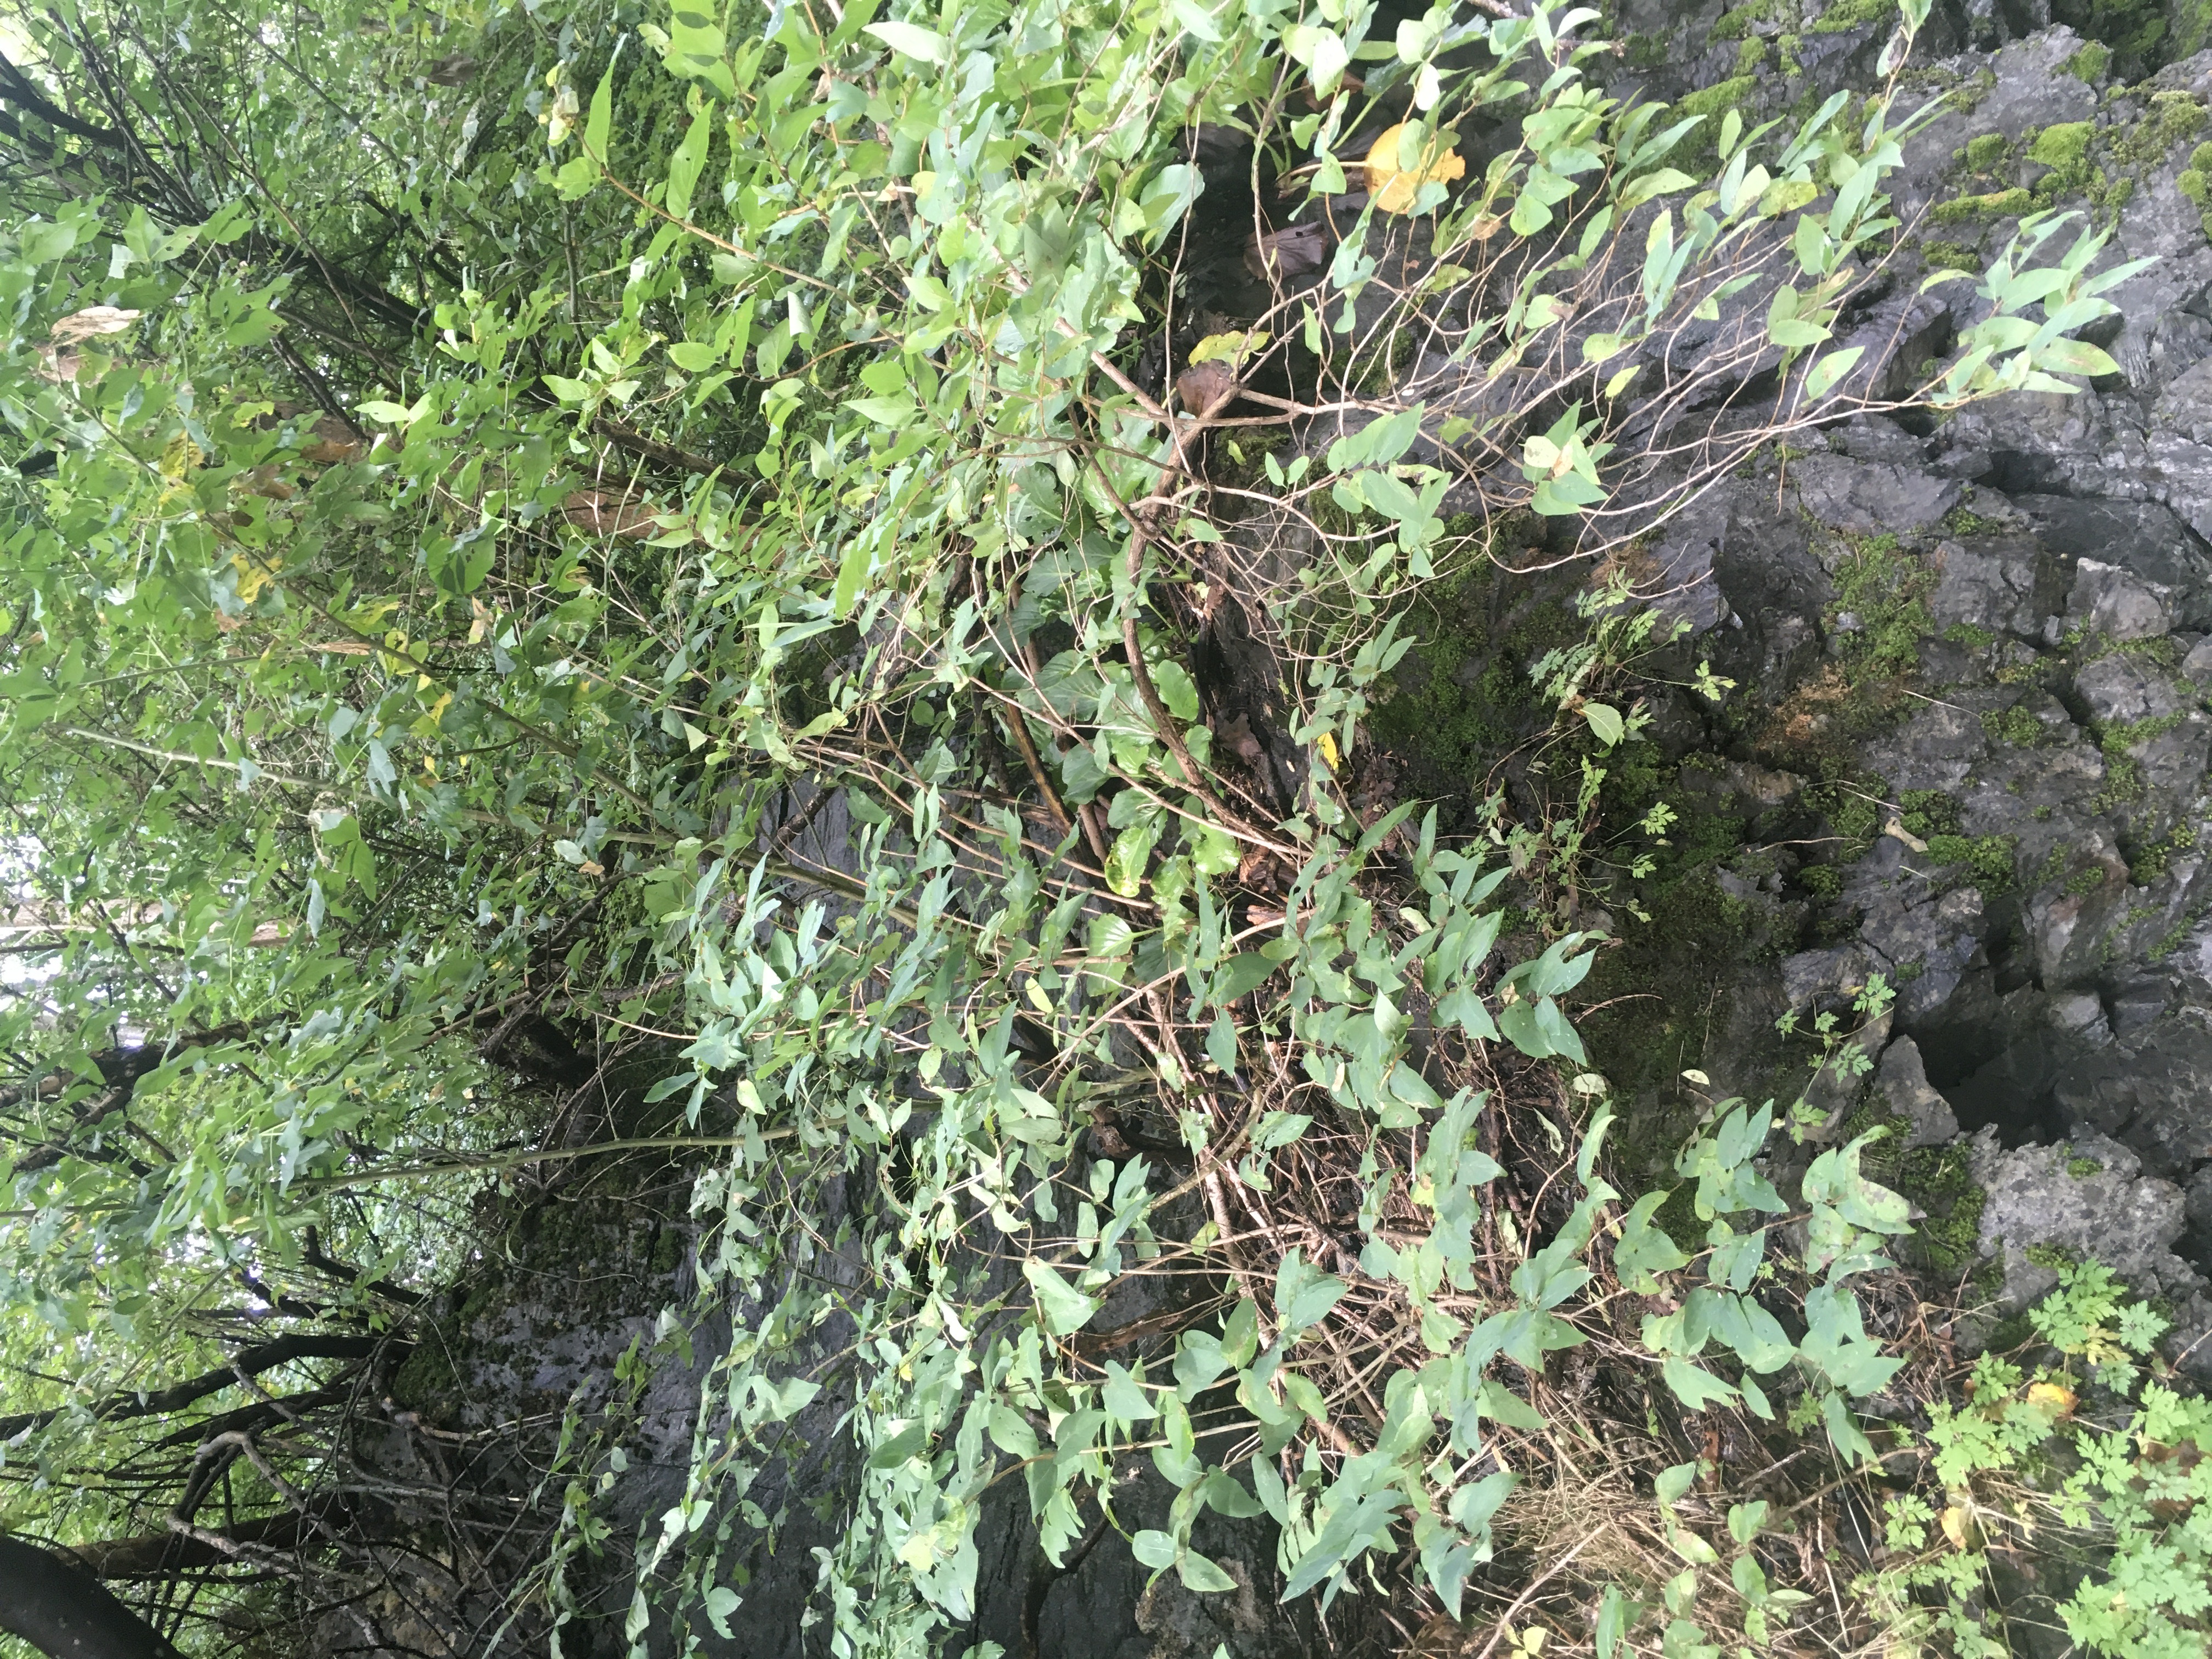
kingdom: Plantae
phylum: Tracheophyta
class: Magnoliopsida
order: Dipsacales
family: Caprifoliaceae
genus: Lonicera
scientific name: Lonicera tatarica
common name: tatarleddved
